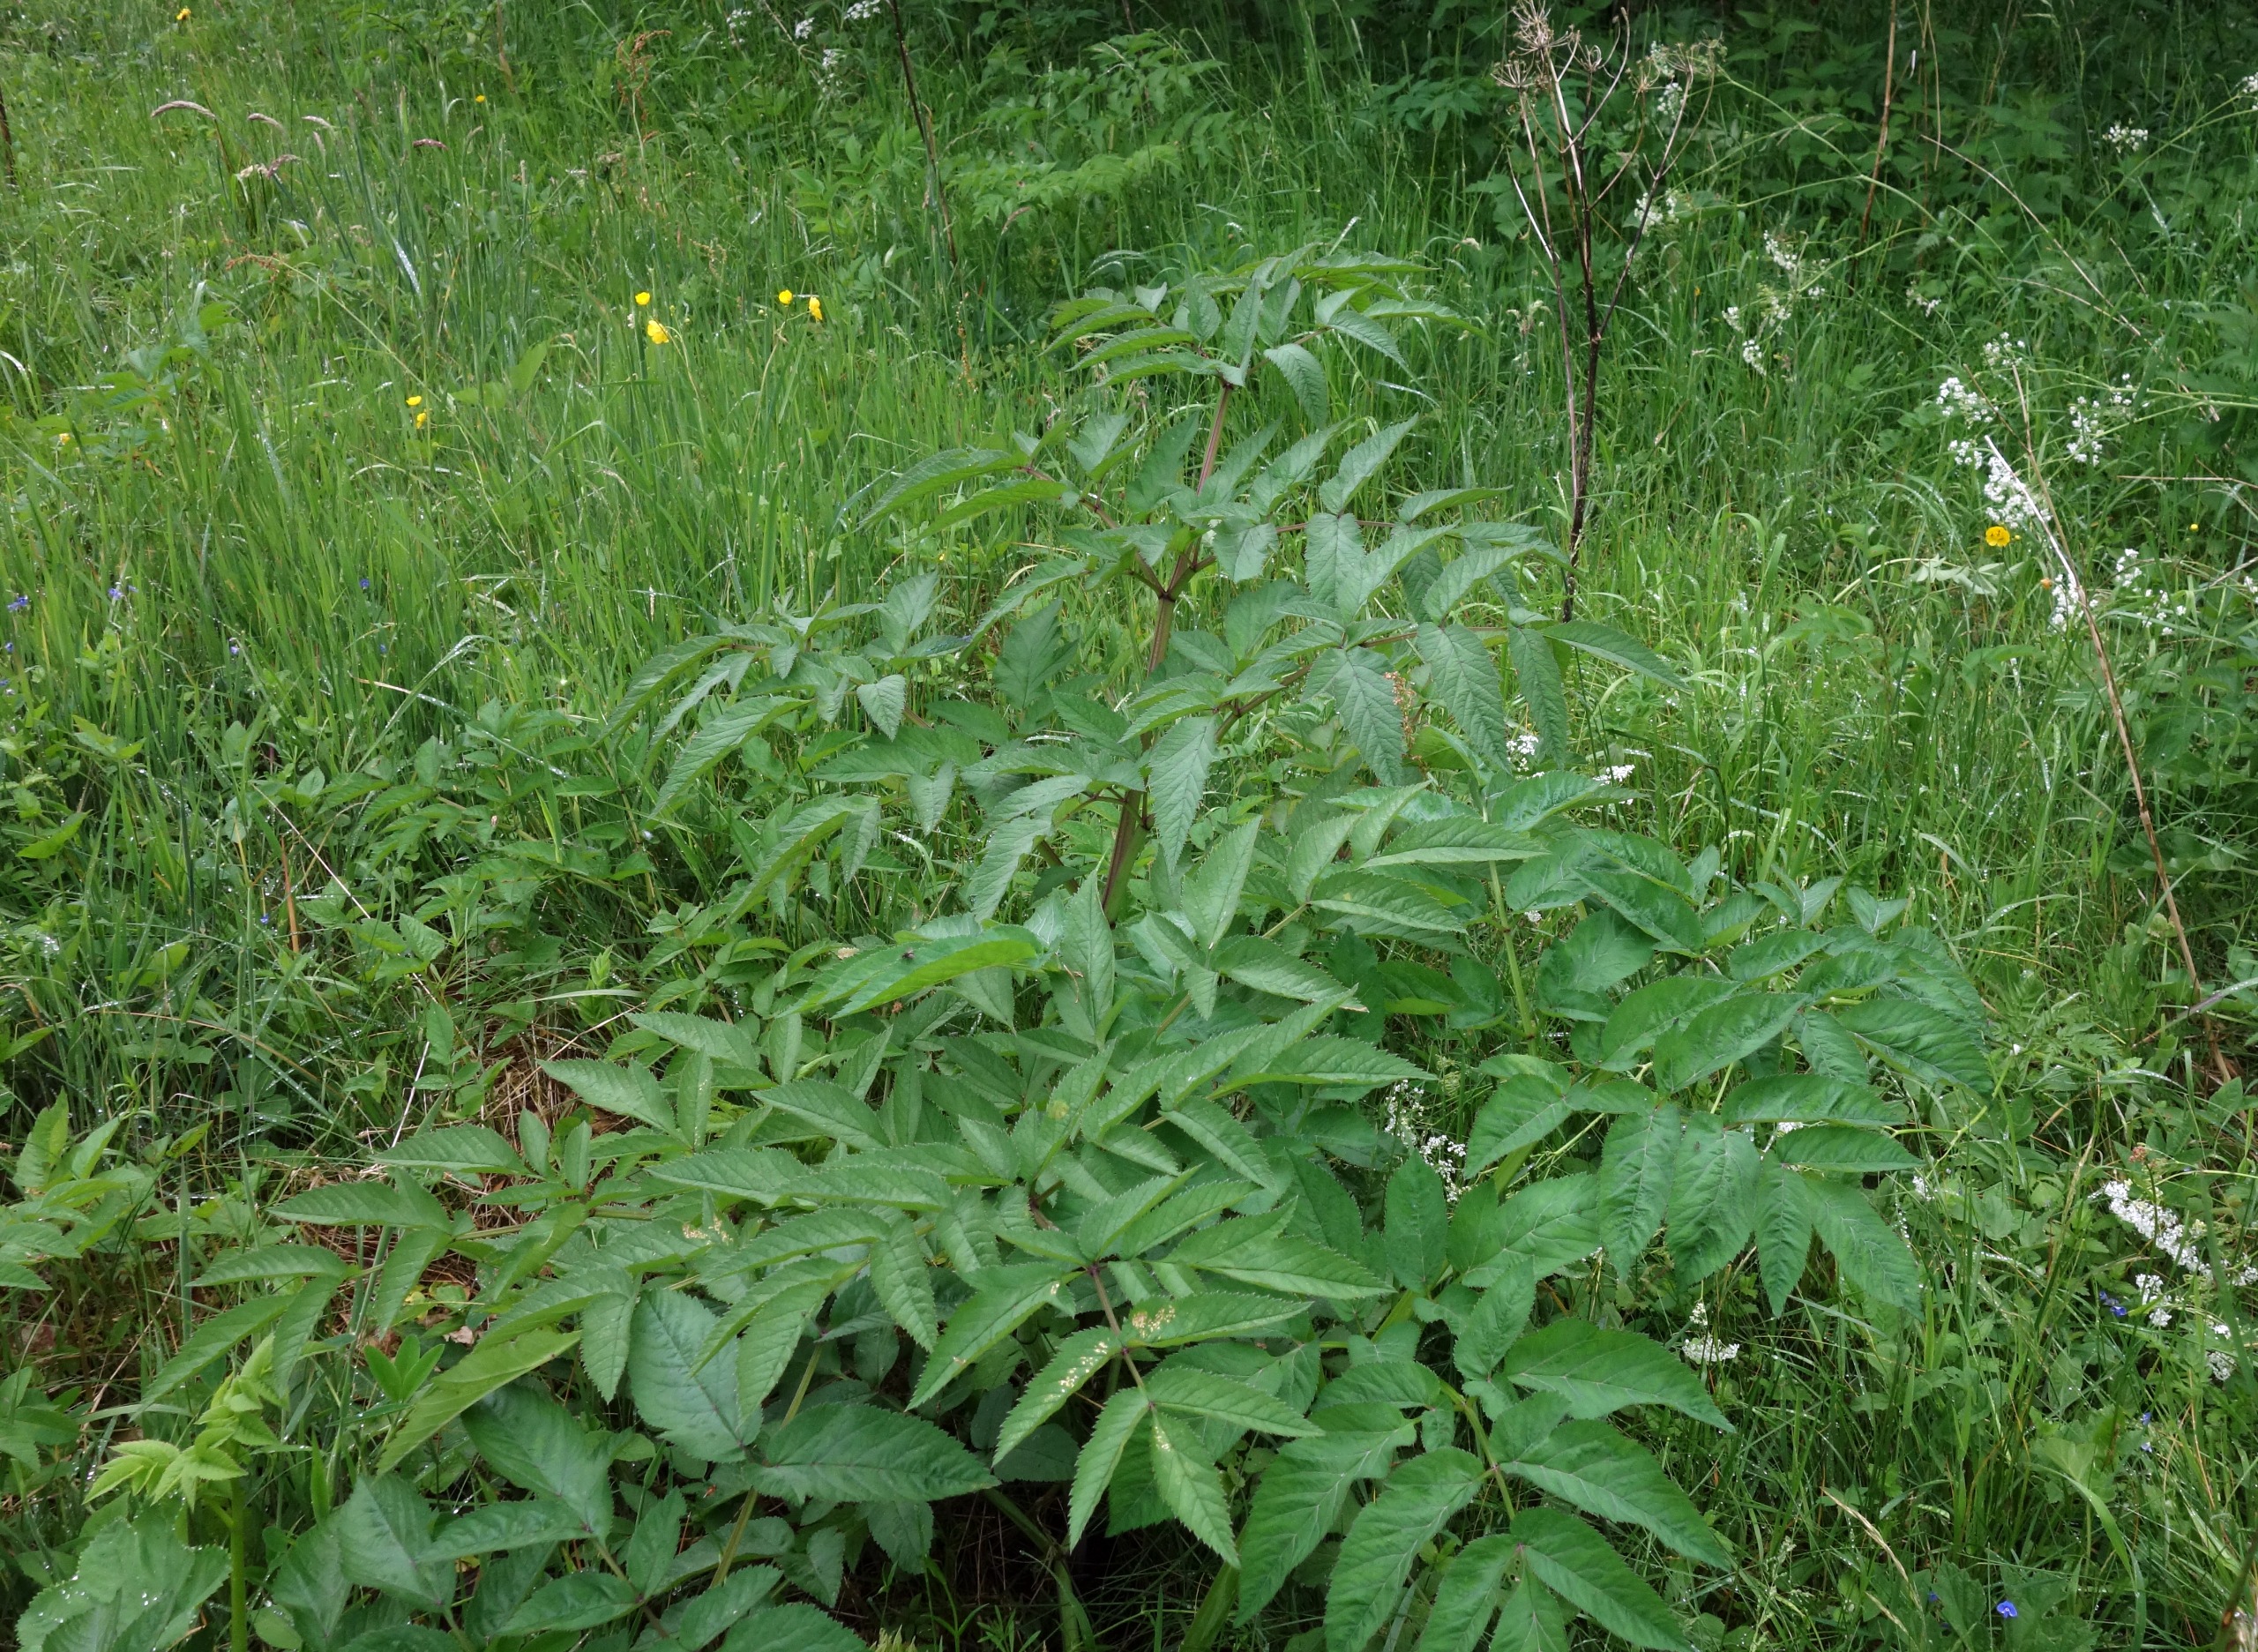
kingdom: Plantae
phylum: Tracheophyta
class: Magnoliopsida
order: Apiales
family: Apiaceae
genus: Angelica
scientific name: Angelica sylvestris
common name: Angelik
